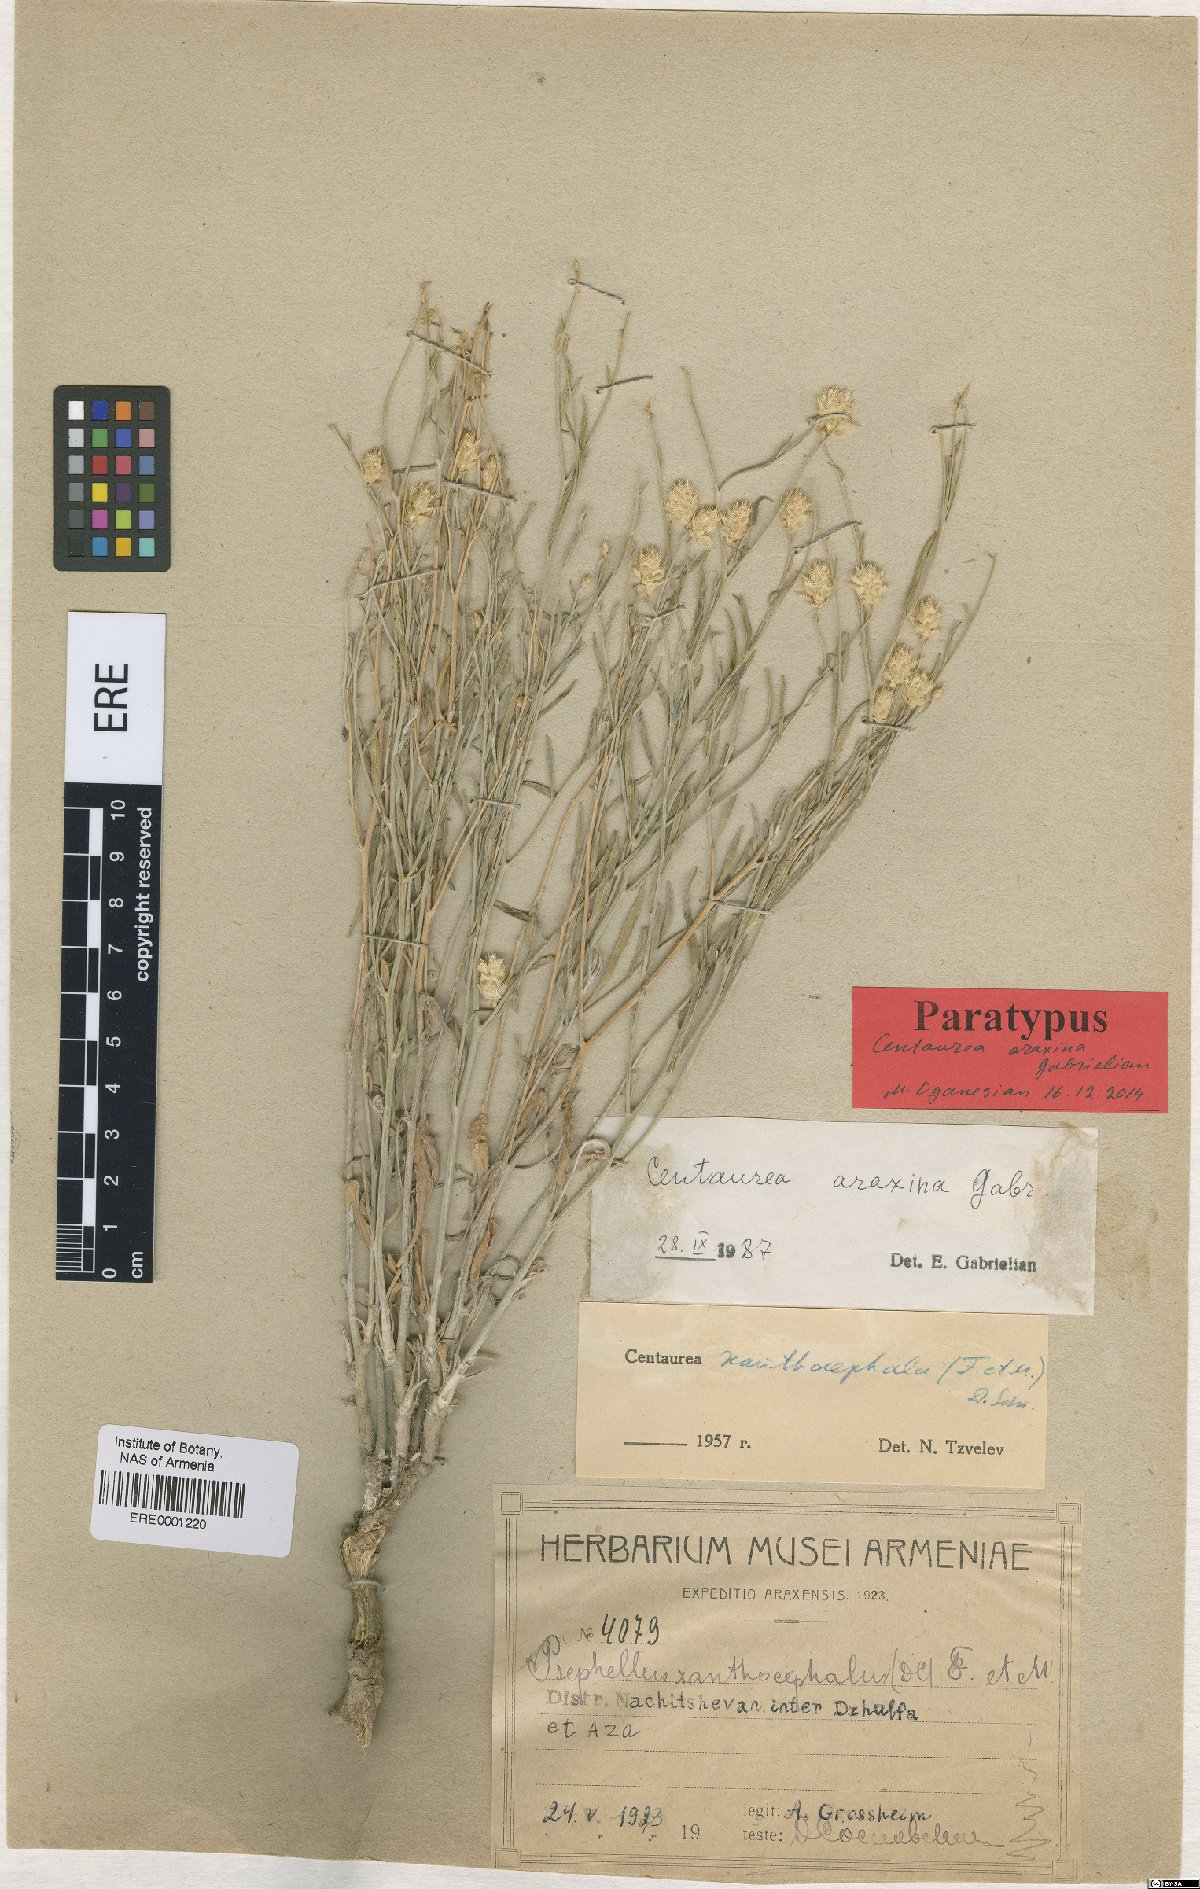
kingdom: Plantae
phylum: Tracheophyta
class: Magnoliopsida
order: Asterales
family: Asteraceae
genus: Psephellus
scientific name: Psephellus araxinus
